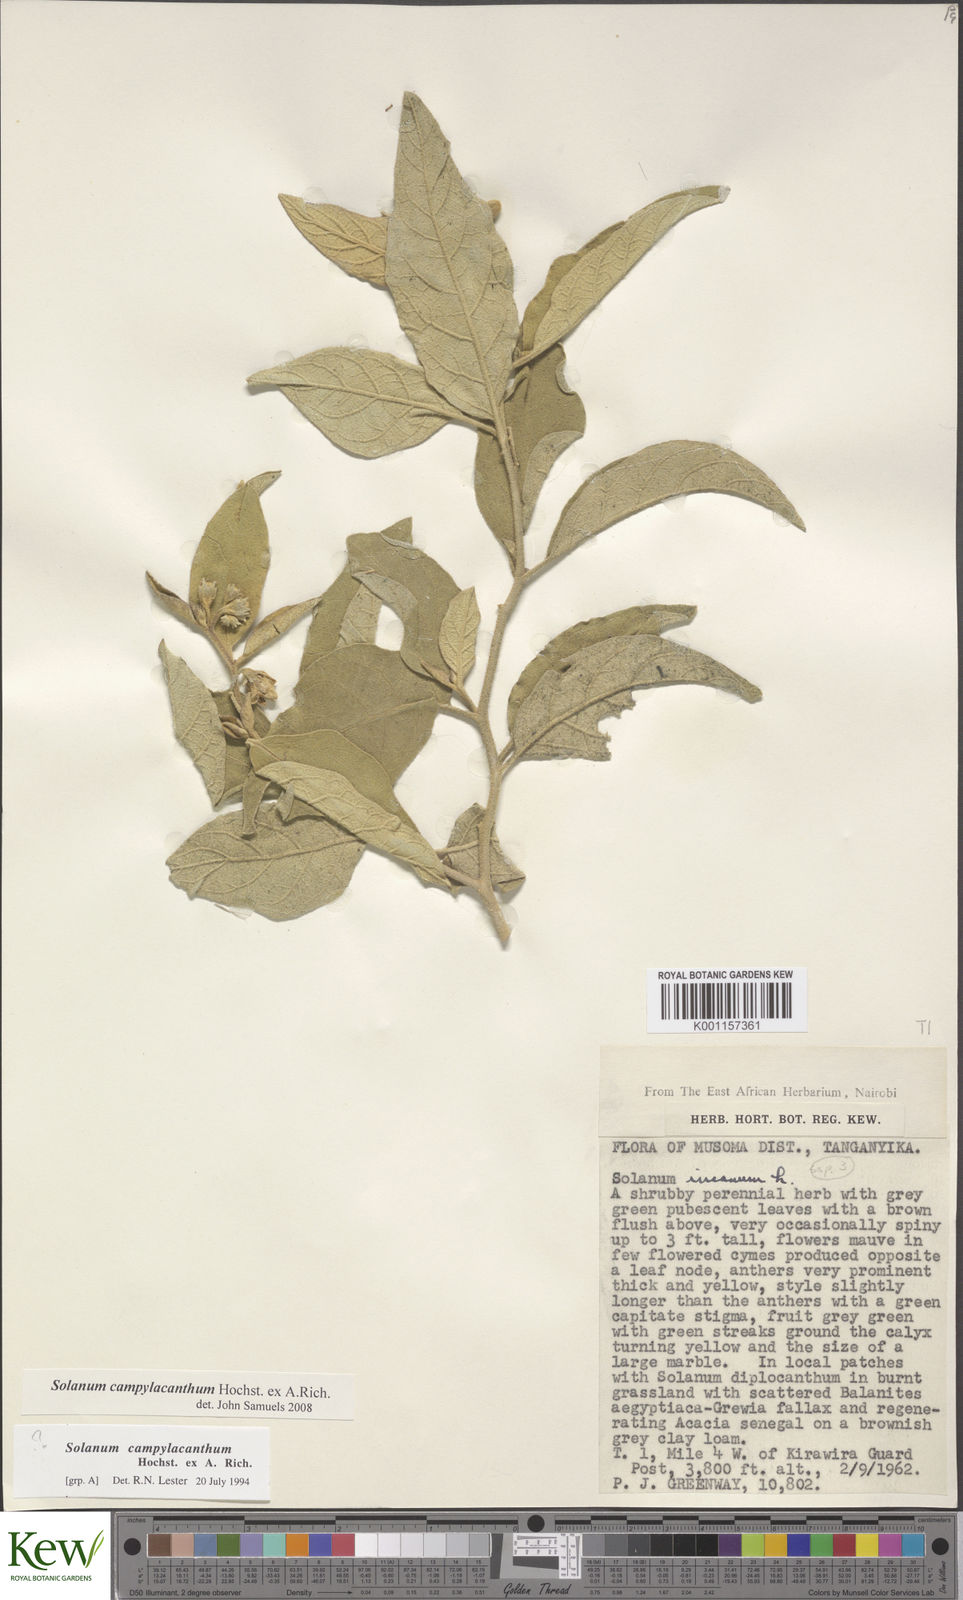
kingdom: Plantae
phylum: Tracheophyta
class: Magnoliopsida
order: Solanales
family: Solanaceae
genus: Solanum
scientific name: Solanum campylacanthum
